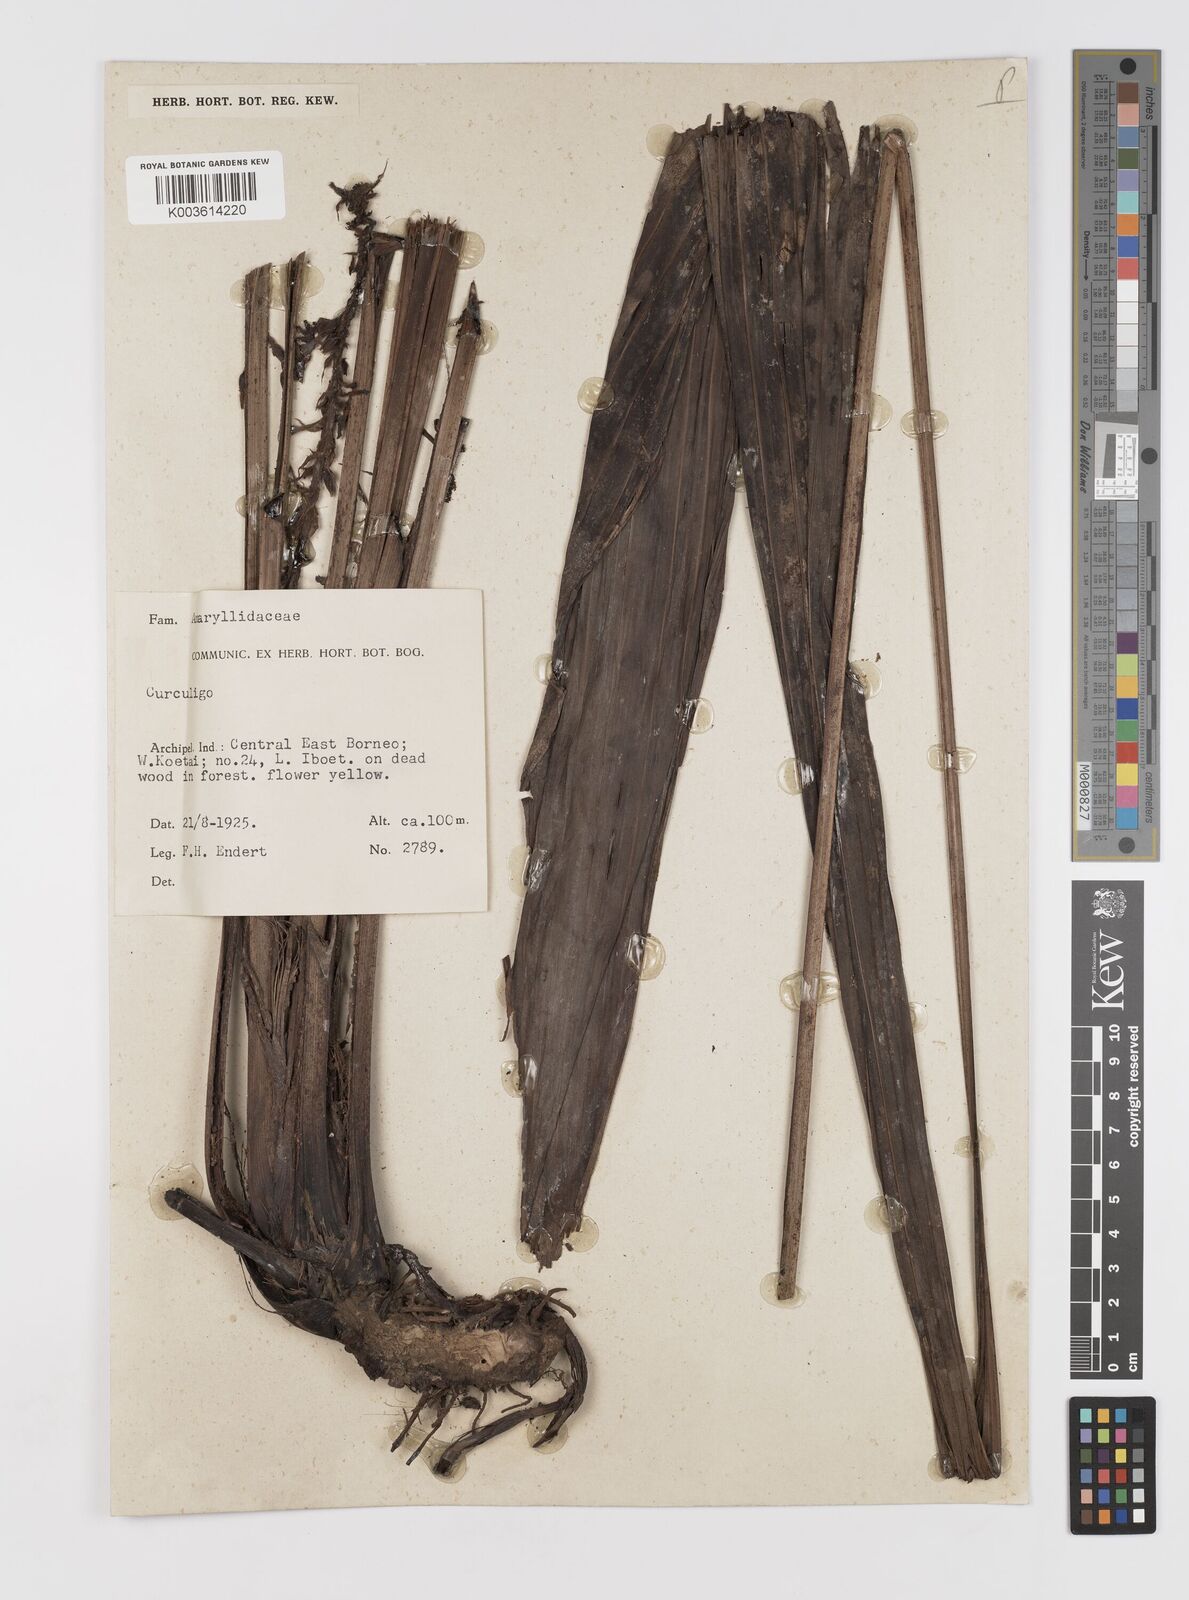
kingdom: Plantae
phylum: Tracheophyta
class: Liliopsida
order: Asparagales
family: Hypoxidaceae
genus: Curculigo
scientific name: Curculigo
